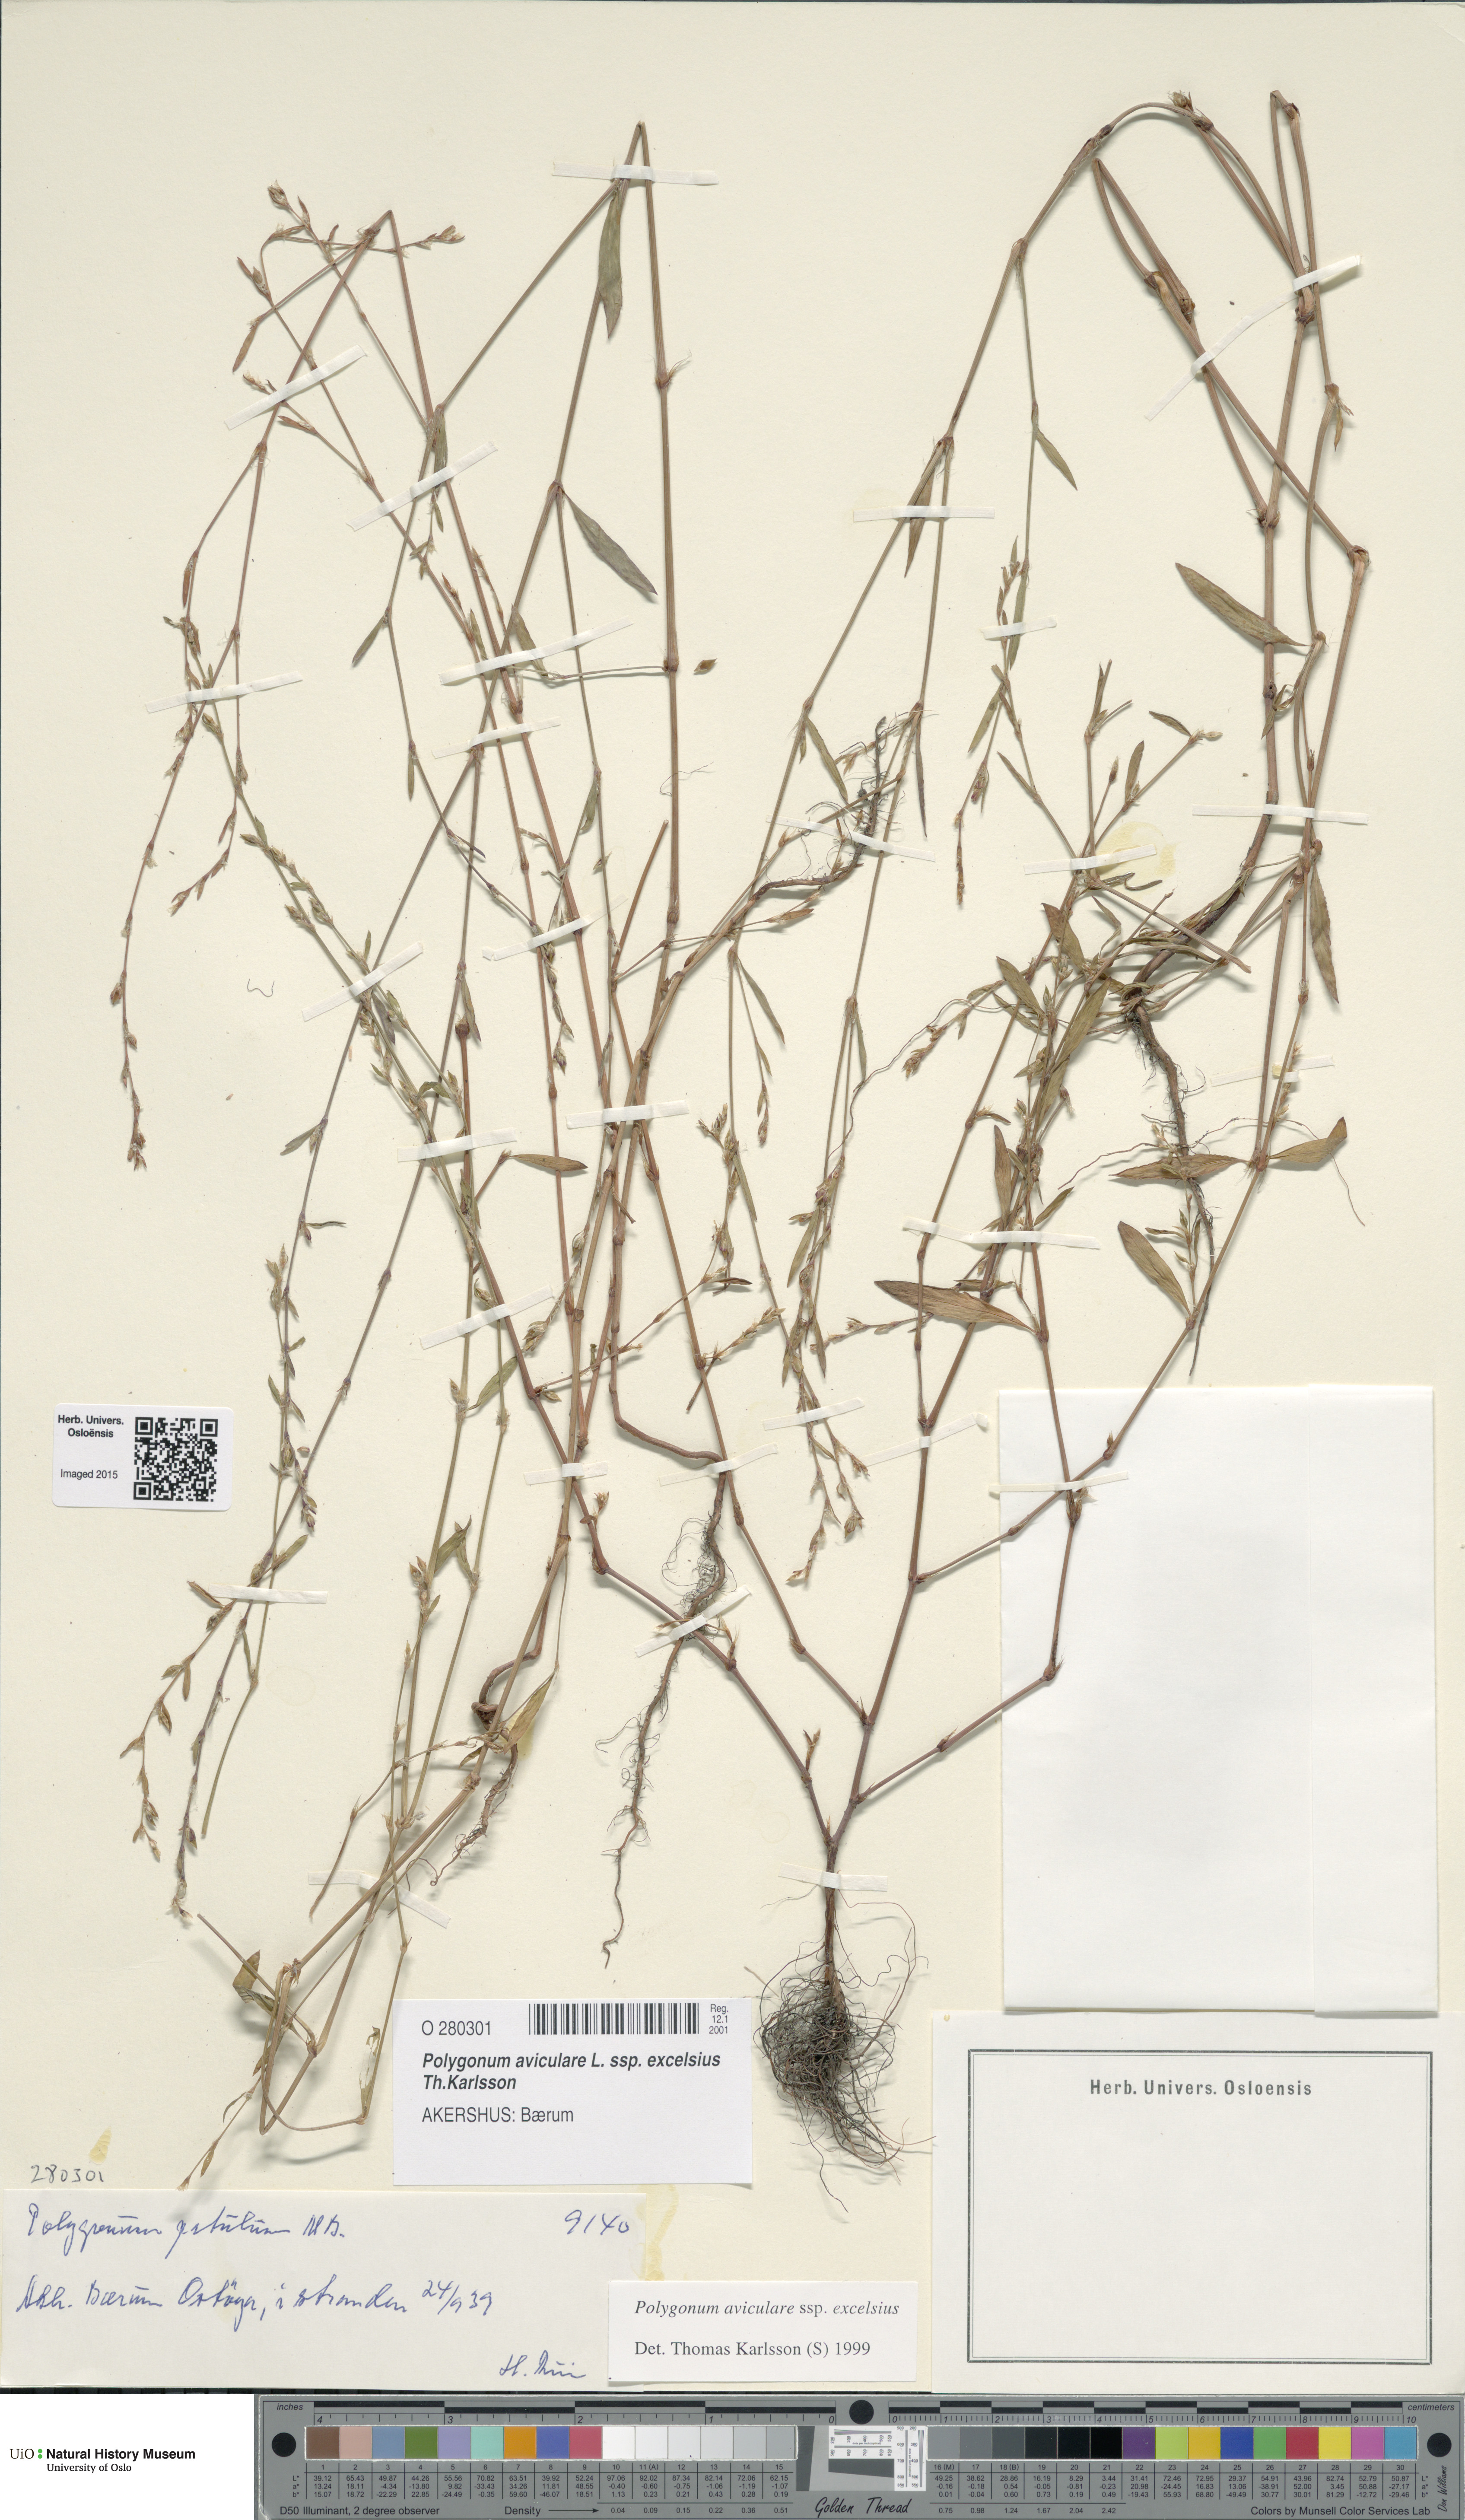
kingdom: Plantae
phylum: Tracheophyta
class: Magnoliopsida
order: Caryophyllales
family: Polygonaceae
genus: Polygonum
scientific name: Polygonum excelsius
